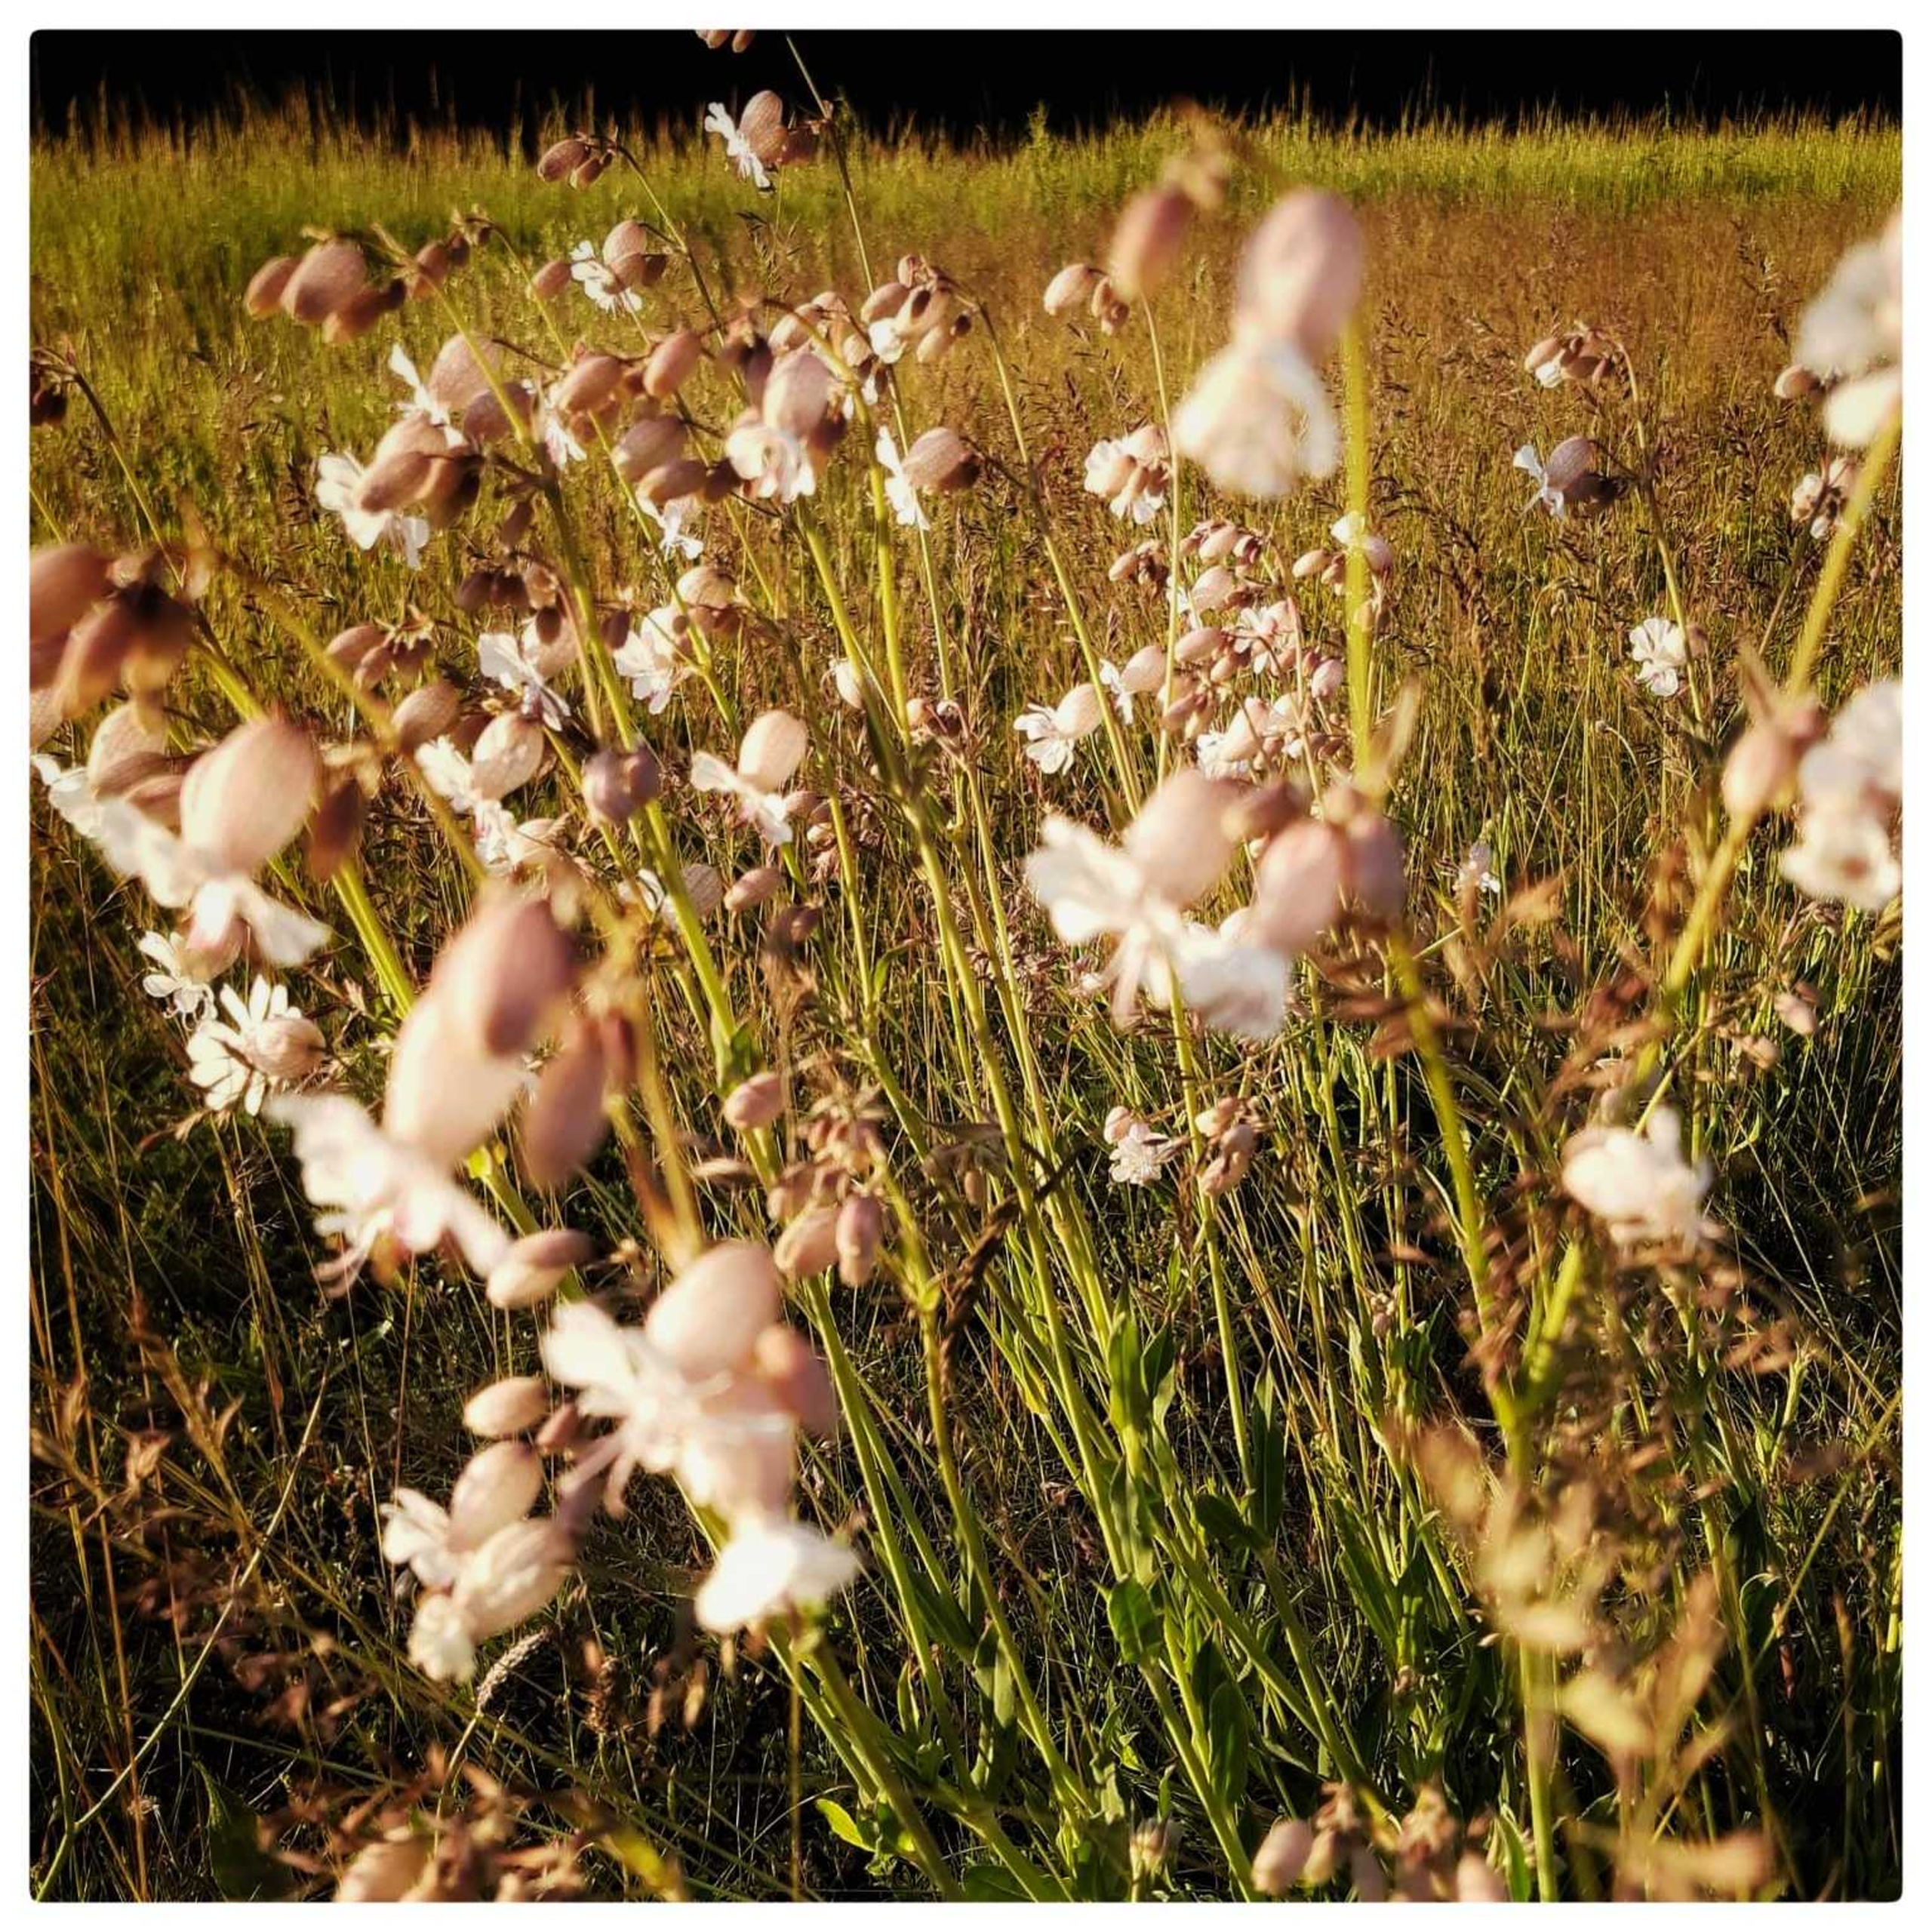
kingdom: Plantae
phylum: Tracheophyta
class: Magnoliopsida
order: Caryophyllales
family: Caryophyllaceae
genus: Silene
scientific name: Silene vulgaris
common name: Blæresmælde
